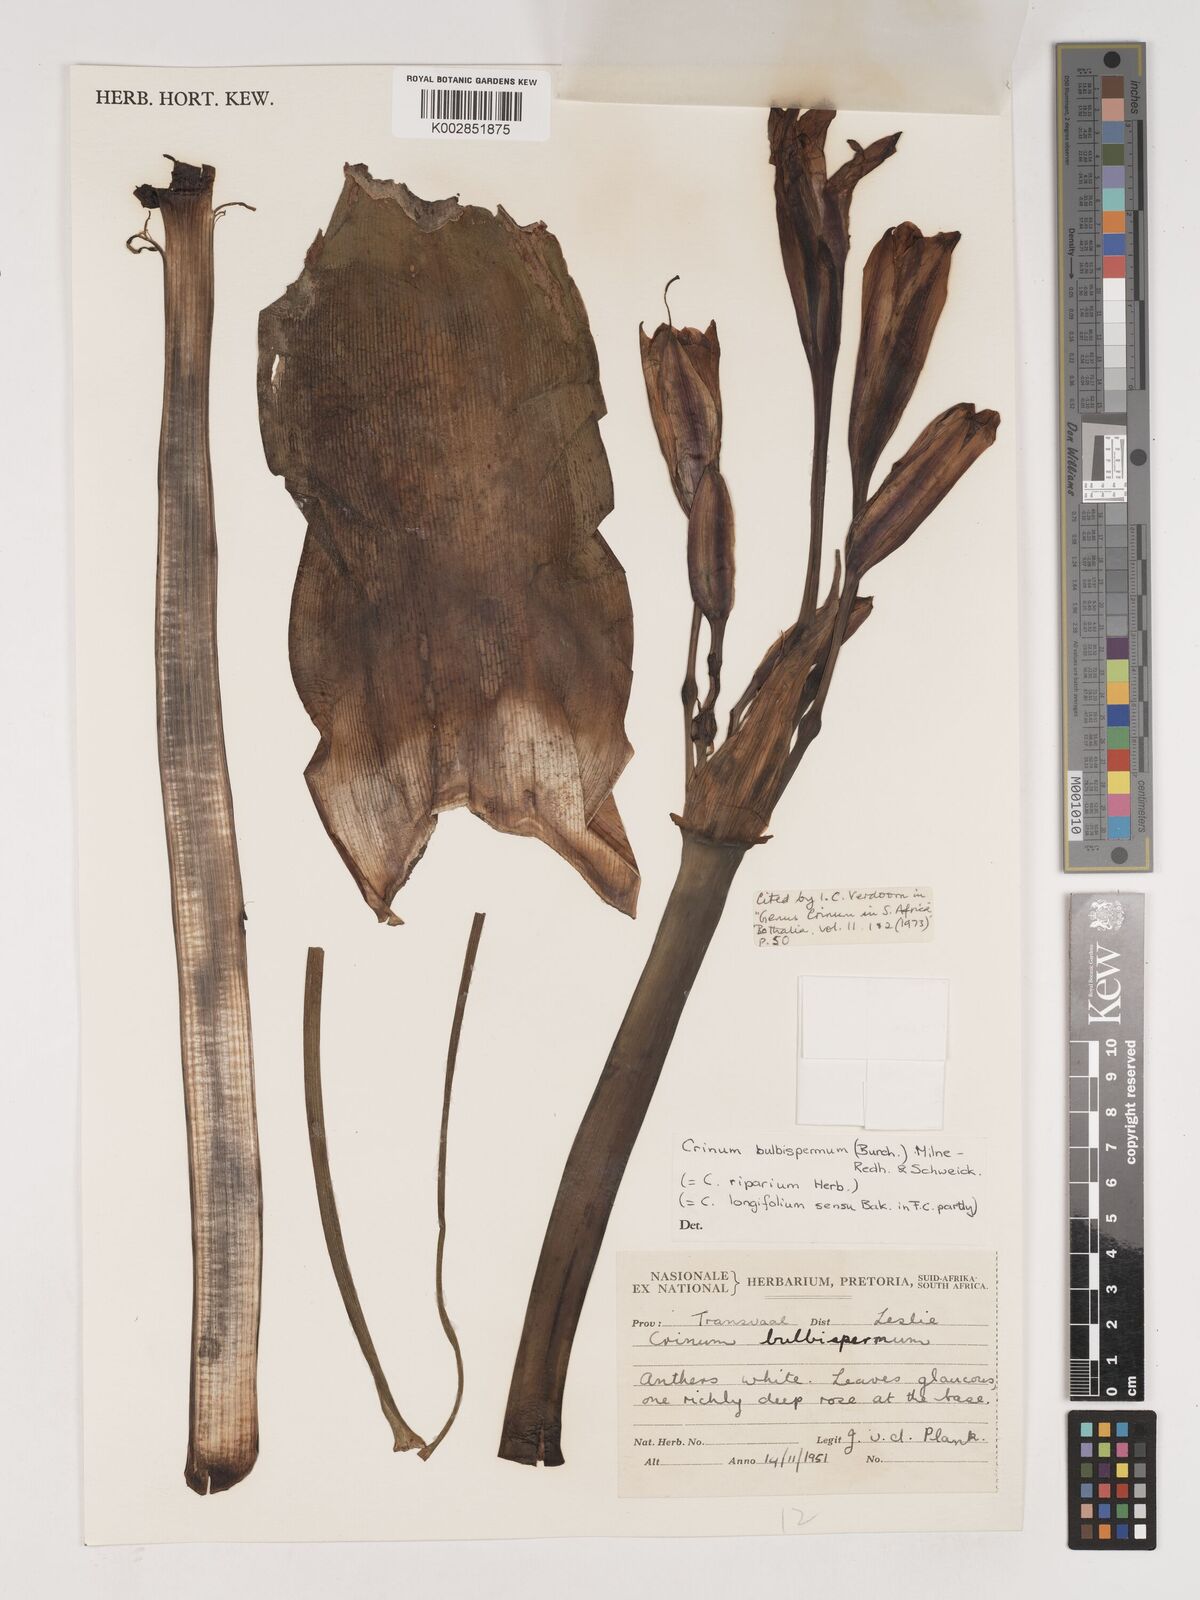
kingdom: Plantae
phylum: Tracheophyta
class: Liliopsida
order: Asparagales
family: Amaryllidaceae
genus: Crinum
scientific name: Crinum bulbispermum
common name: Hardy swamplily
